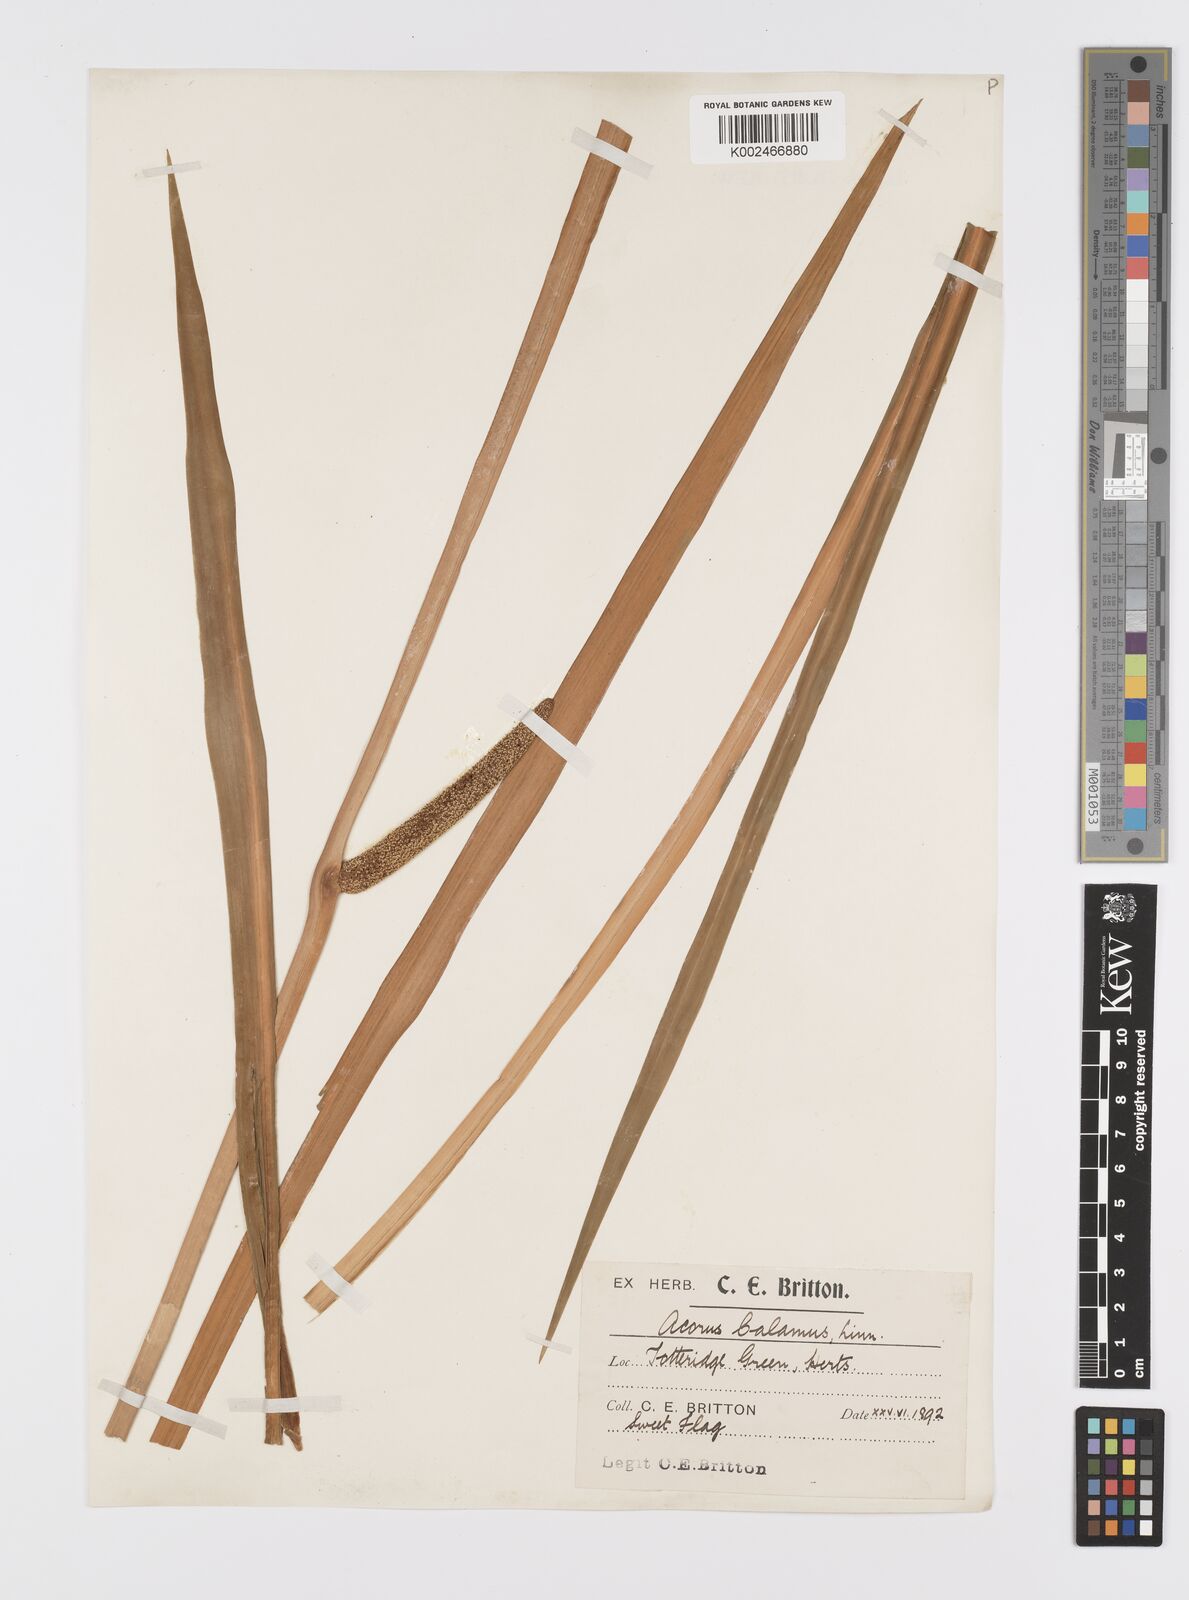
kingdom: Plantae
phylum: Tracheophyta
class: Liliopsida
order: Acorales
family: Acoraceae
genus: Acorus
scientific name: Acorus calamus
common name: Sweet-flag
